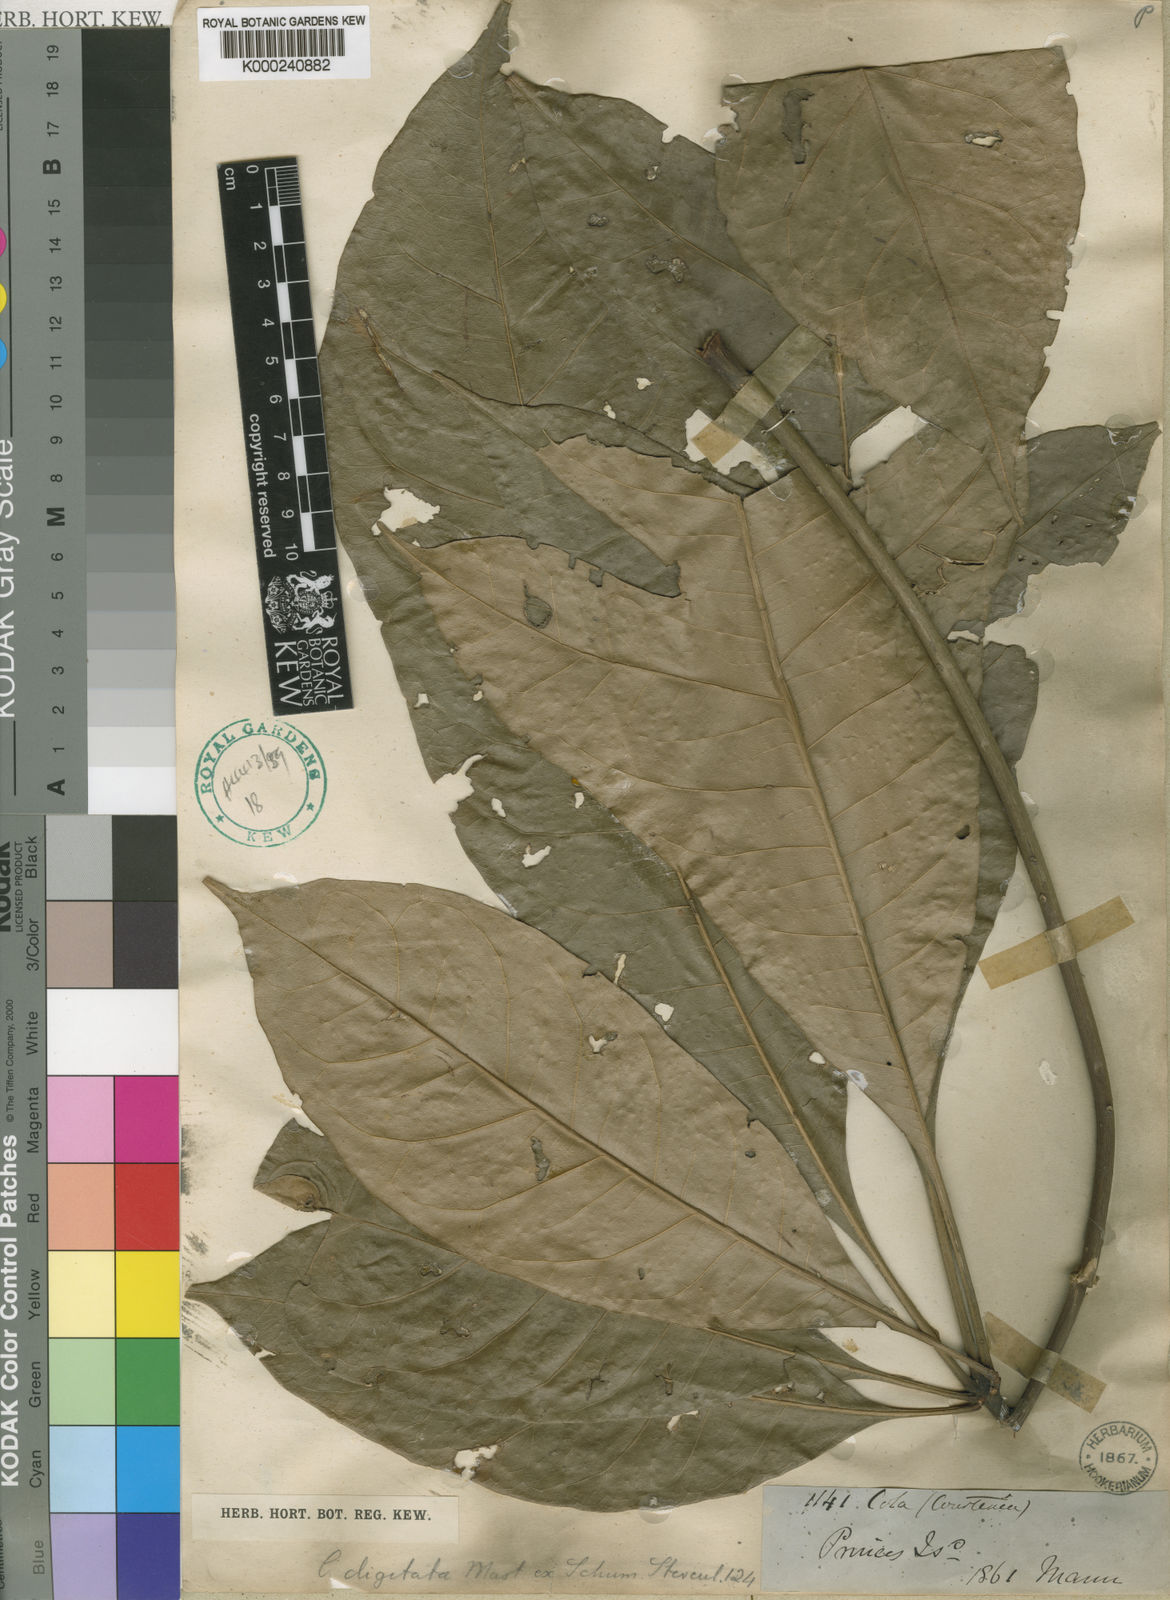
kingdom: Plantae
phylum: Tracheophyta
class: Magnoliopsida
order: Malvales
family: Malvaceae
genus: Cola
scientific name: Cola
